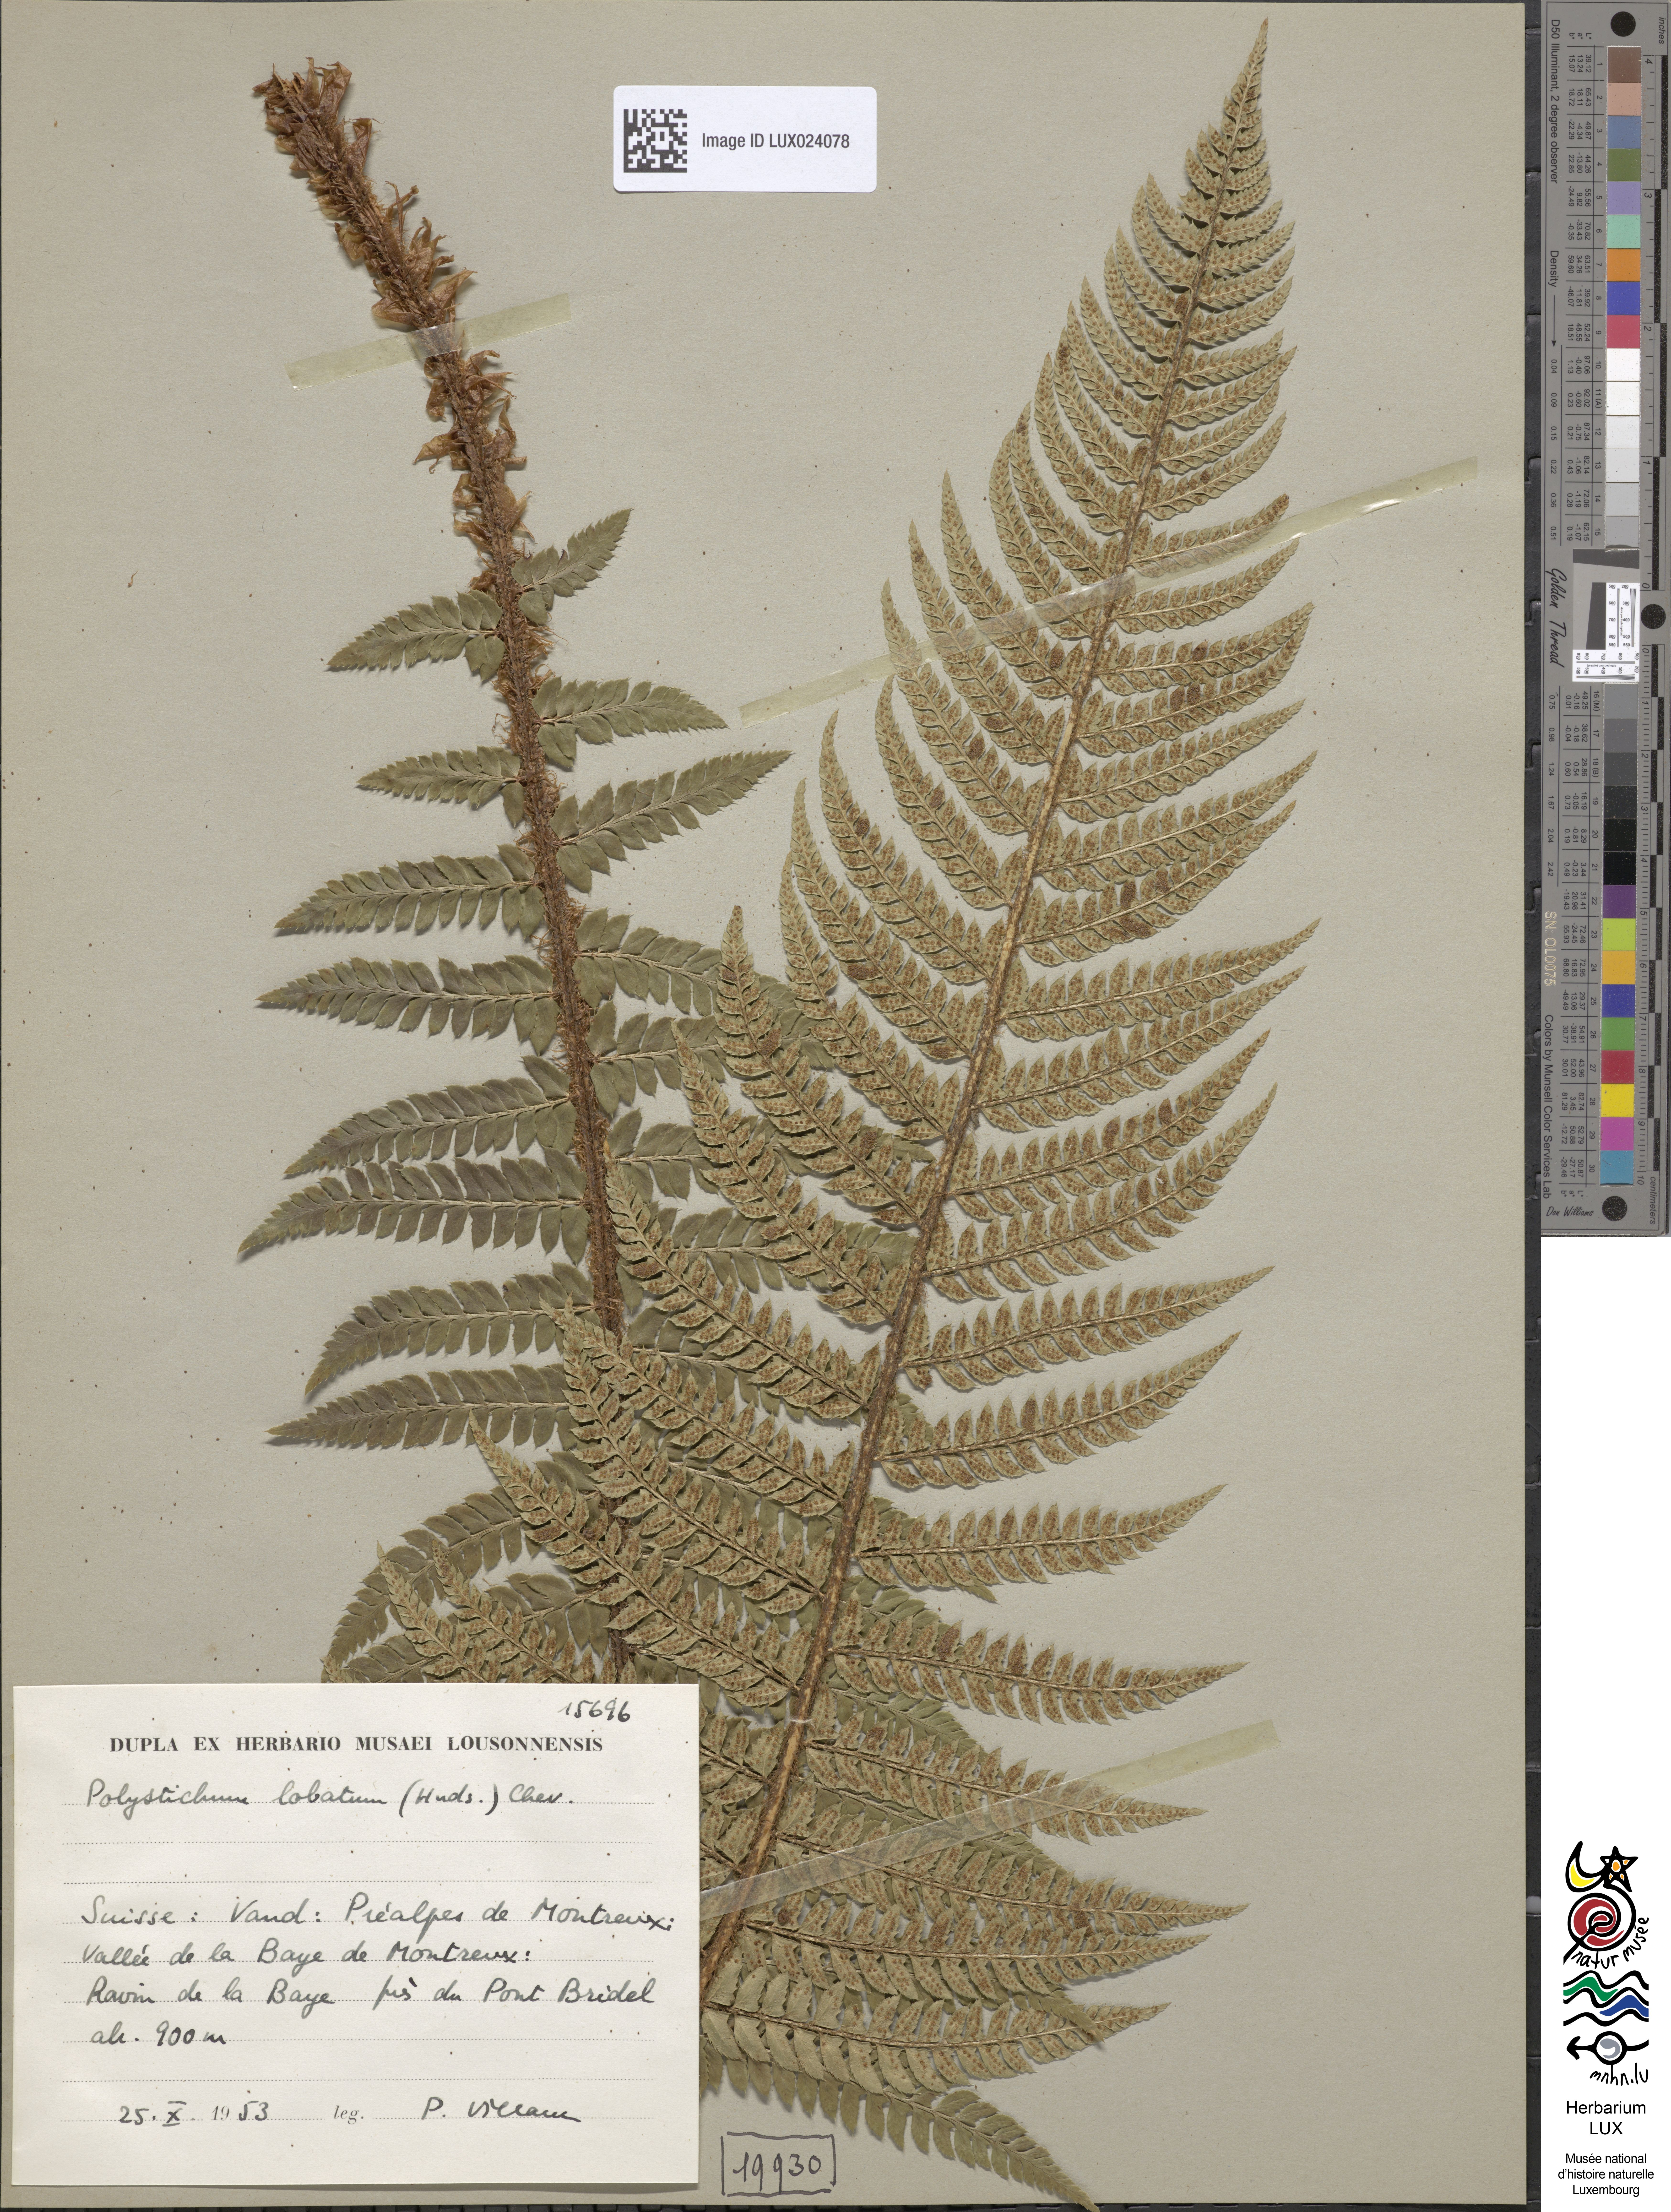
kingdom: Plantae
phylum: Tracheophyta
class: Polypodiopsida
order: Polypodiales
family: Dryopteridaceae
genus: Polystichum
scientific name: Polystichum aculeatum
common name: Hard shield-fern
